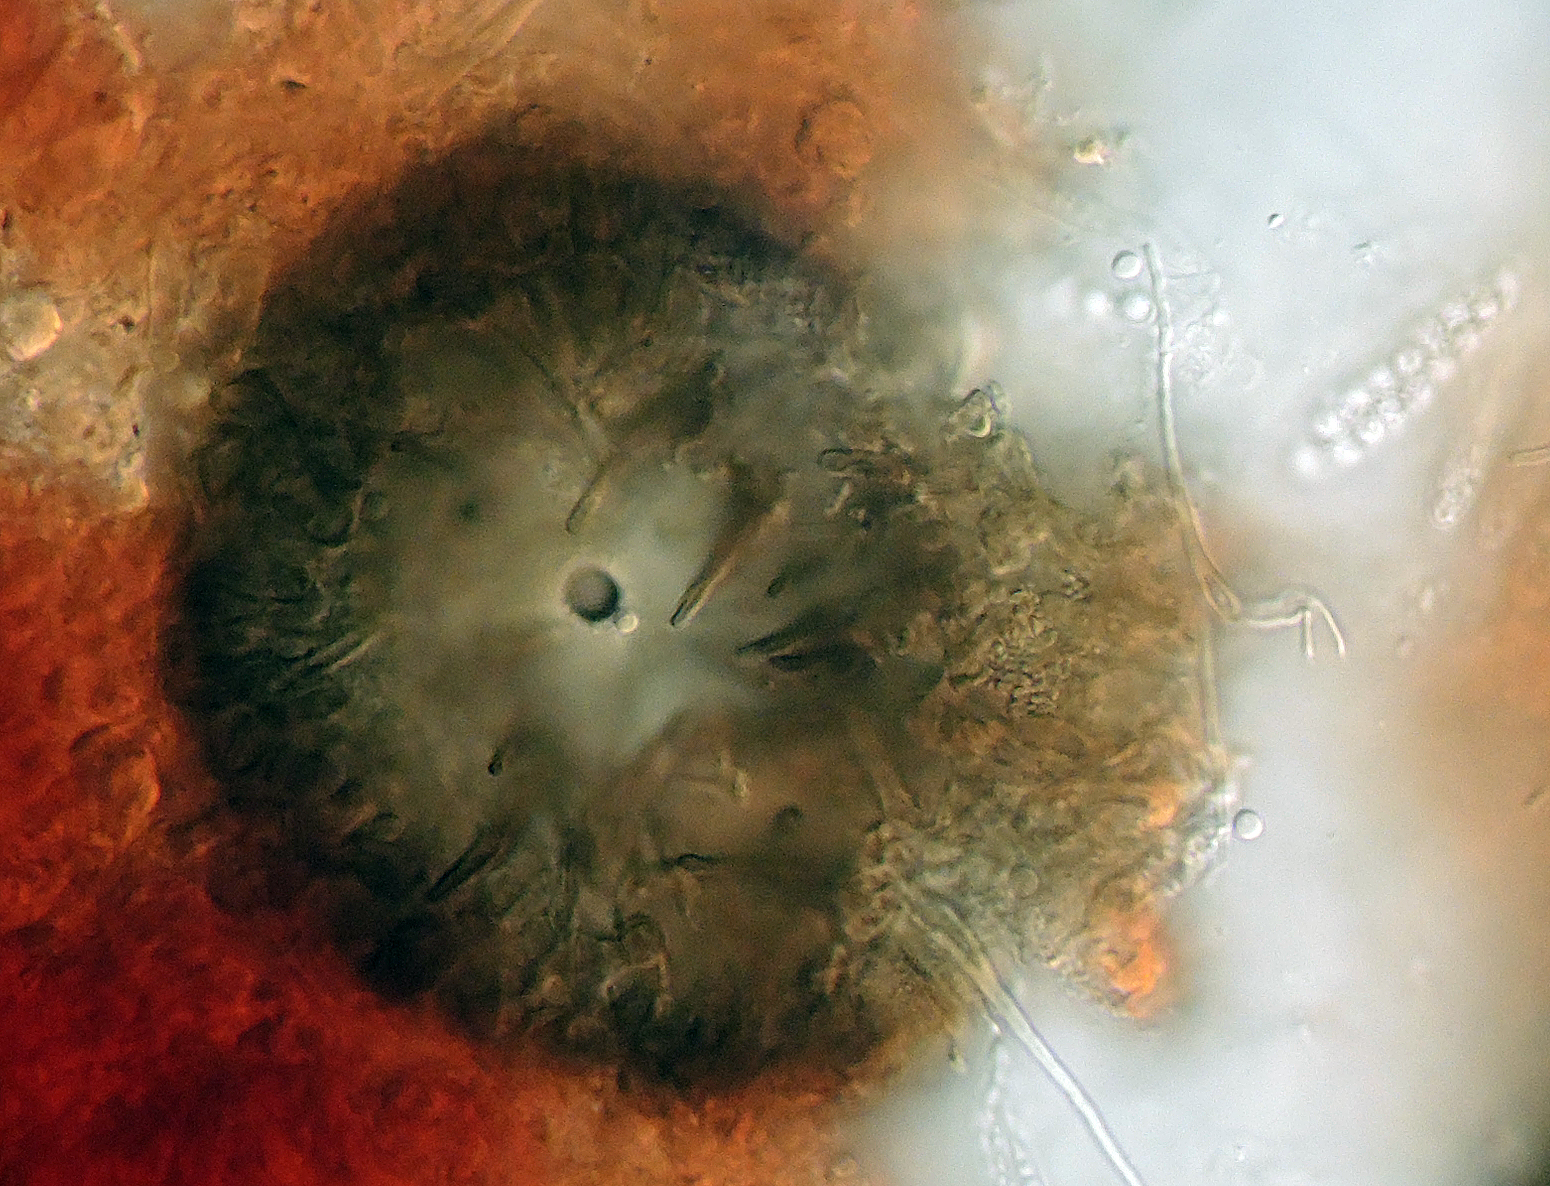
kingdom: Fungi
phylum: Ascomycota
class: Sordariomycetes
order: Hypocreales
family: Niessliaceae
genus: Trichosphaerella
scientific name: Trichosphaerella decipiens
